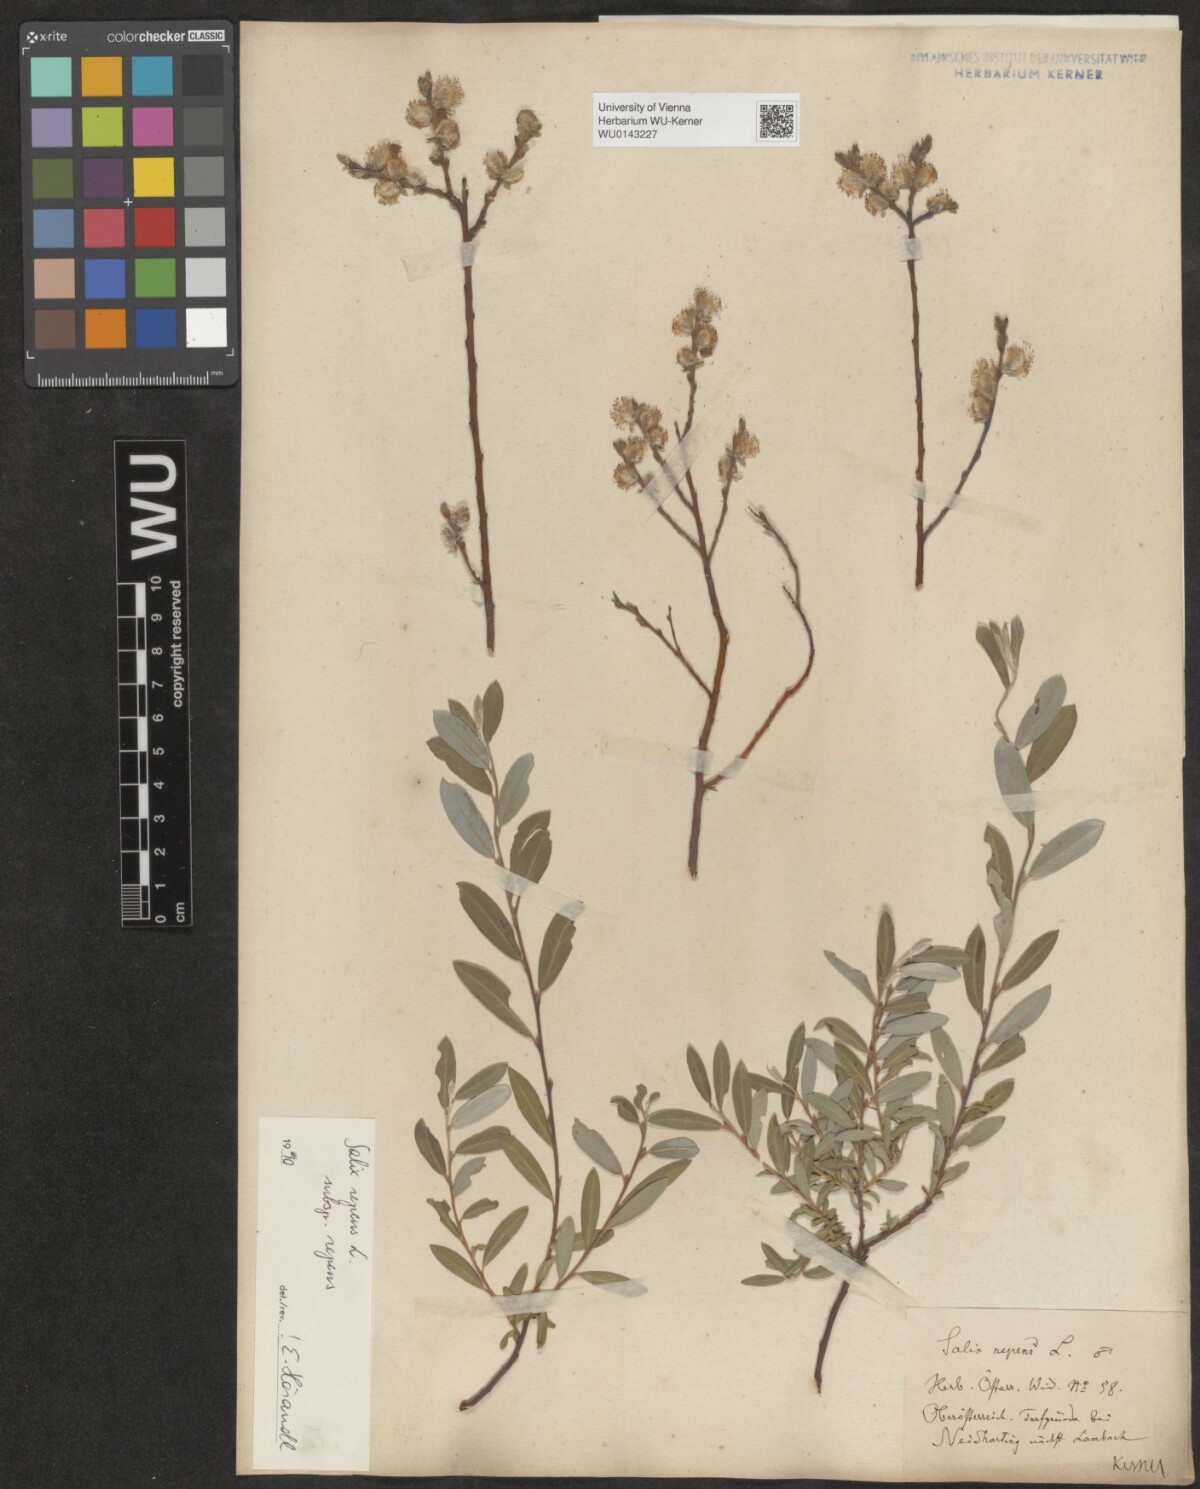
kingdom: Plantae
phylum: Tracheophyta
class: Magnoliopsida
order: Malpighiales
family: Salicaceae
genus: Salix
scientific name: Salix repens
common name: Creeping willow
